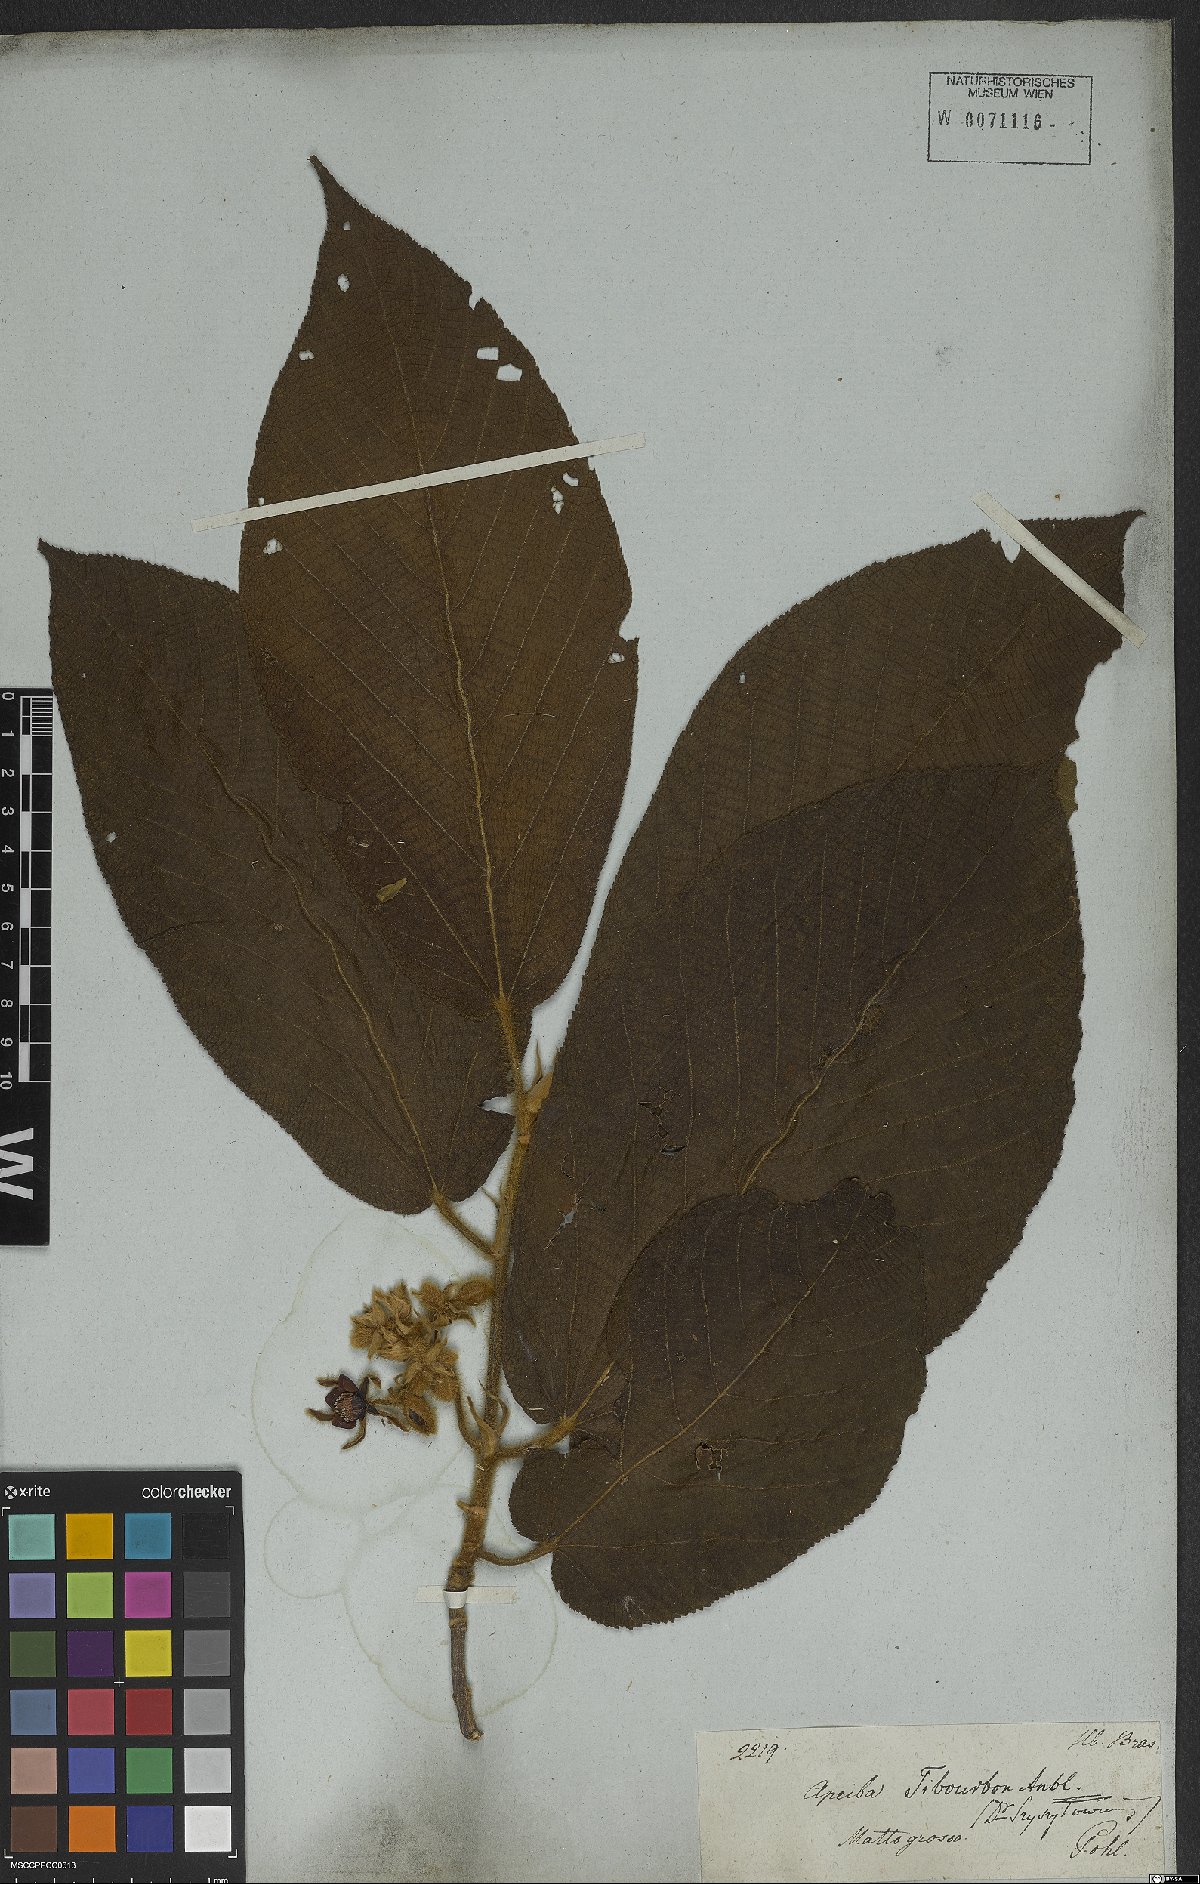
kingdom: Plantae
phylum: Tracheophyta
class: Magnoliopsida
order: Malvales
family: Malvaceae
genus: Apeiba
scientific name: Apeiba tibourbou
